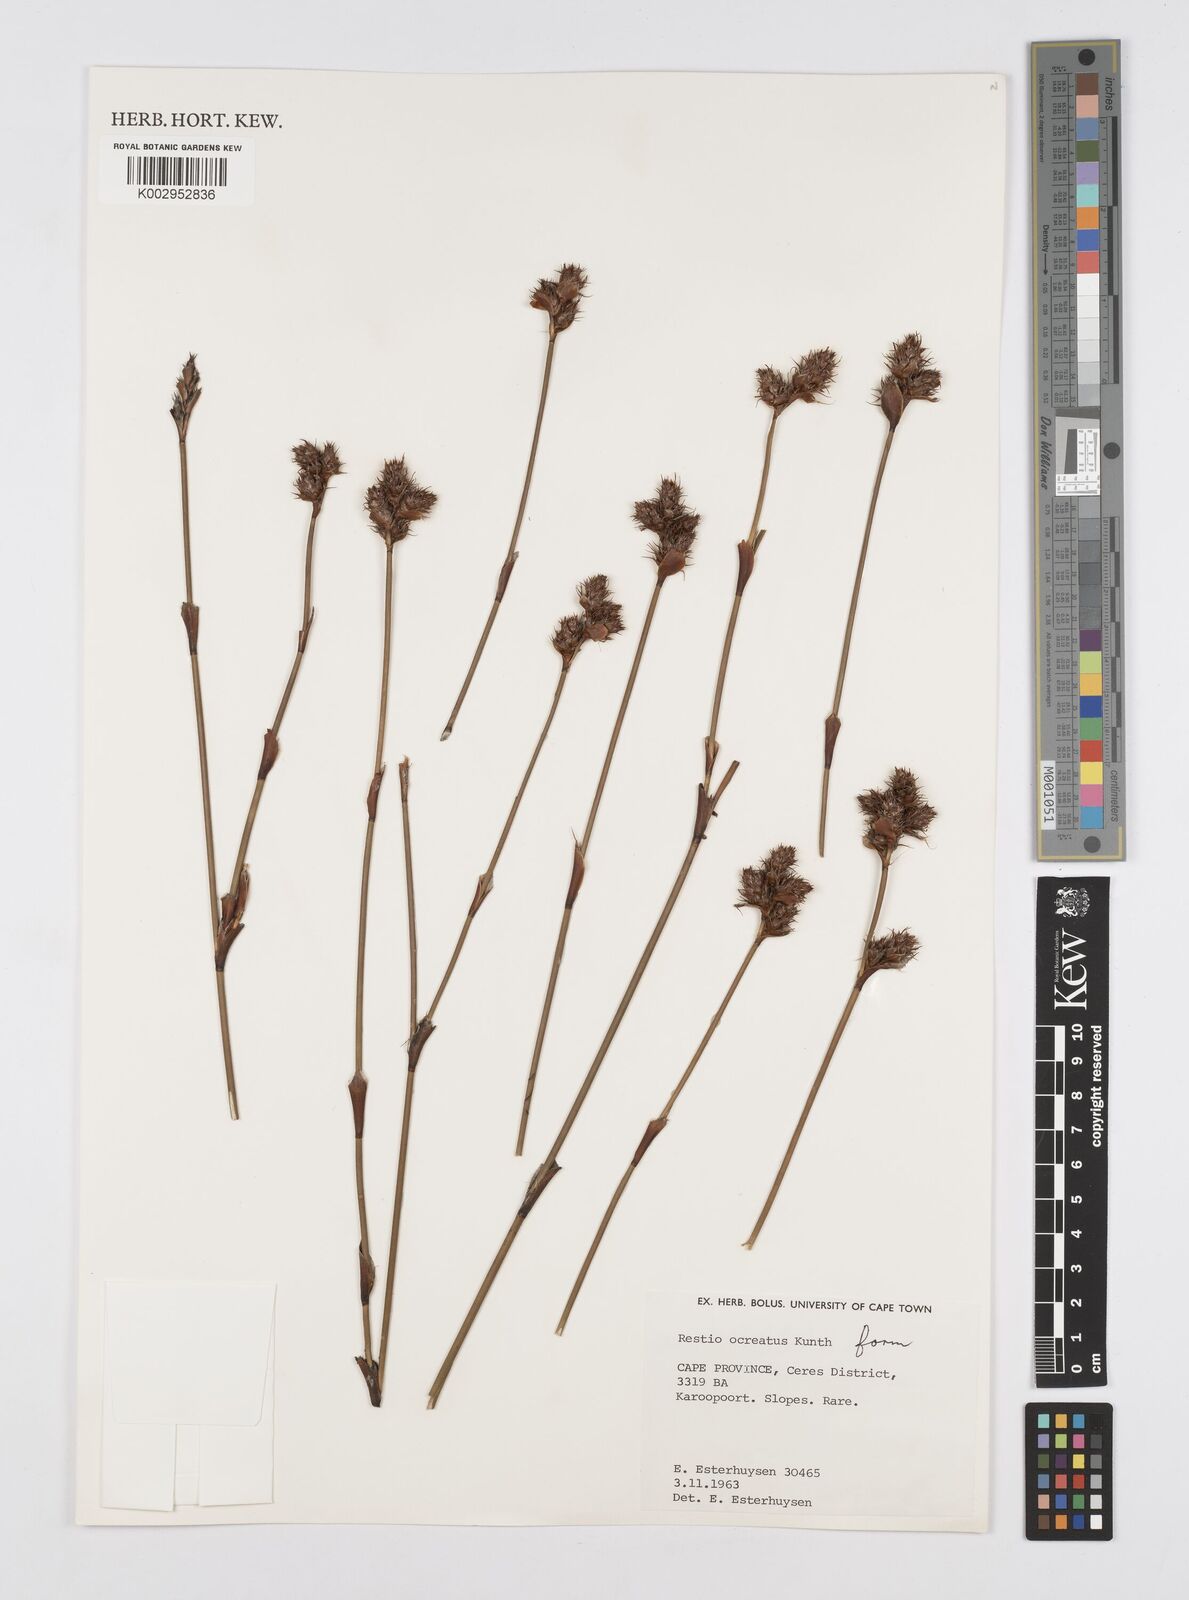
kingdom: Plantae
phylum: Tracheophyta
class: Liliopsida
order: Poales
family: Restionaceae
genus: Restio
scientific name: Restio ocreatus
